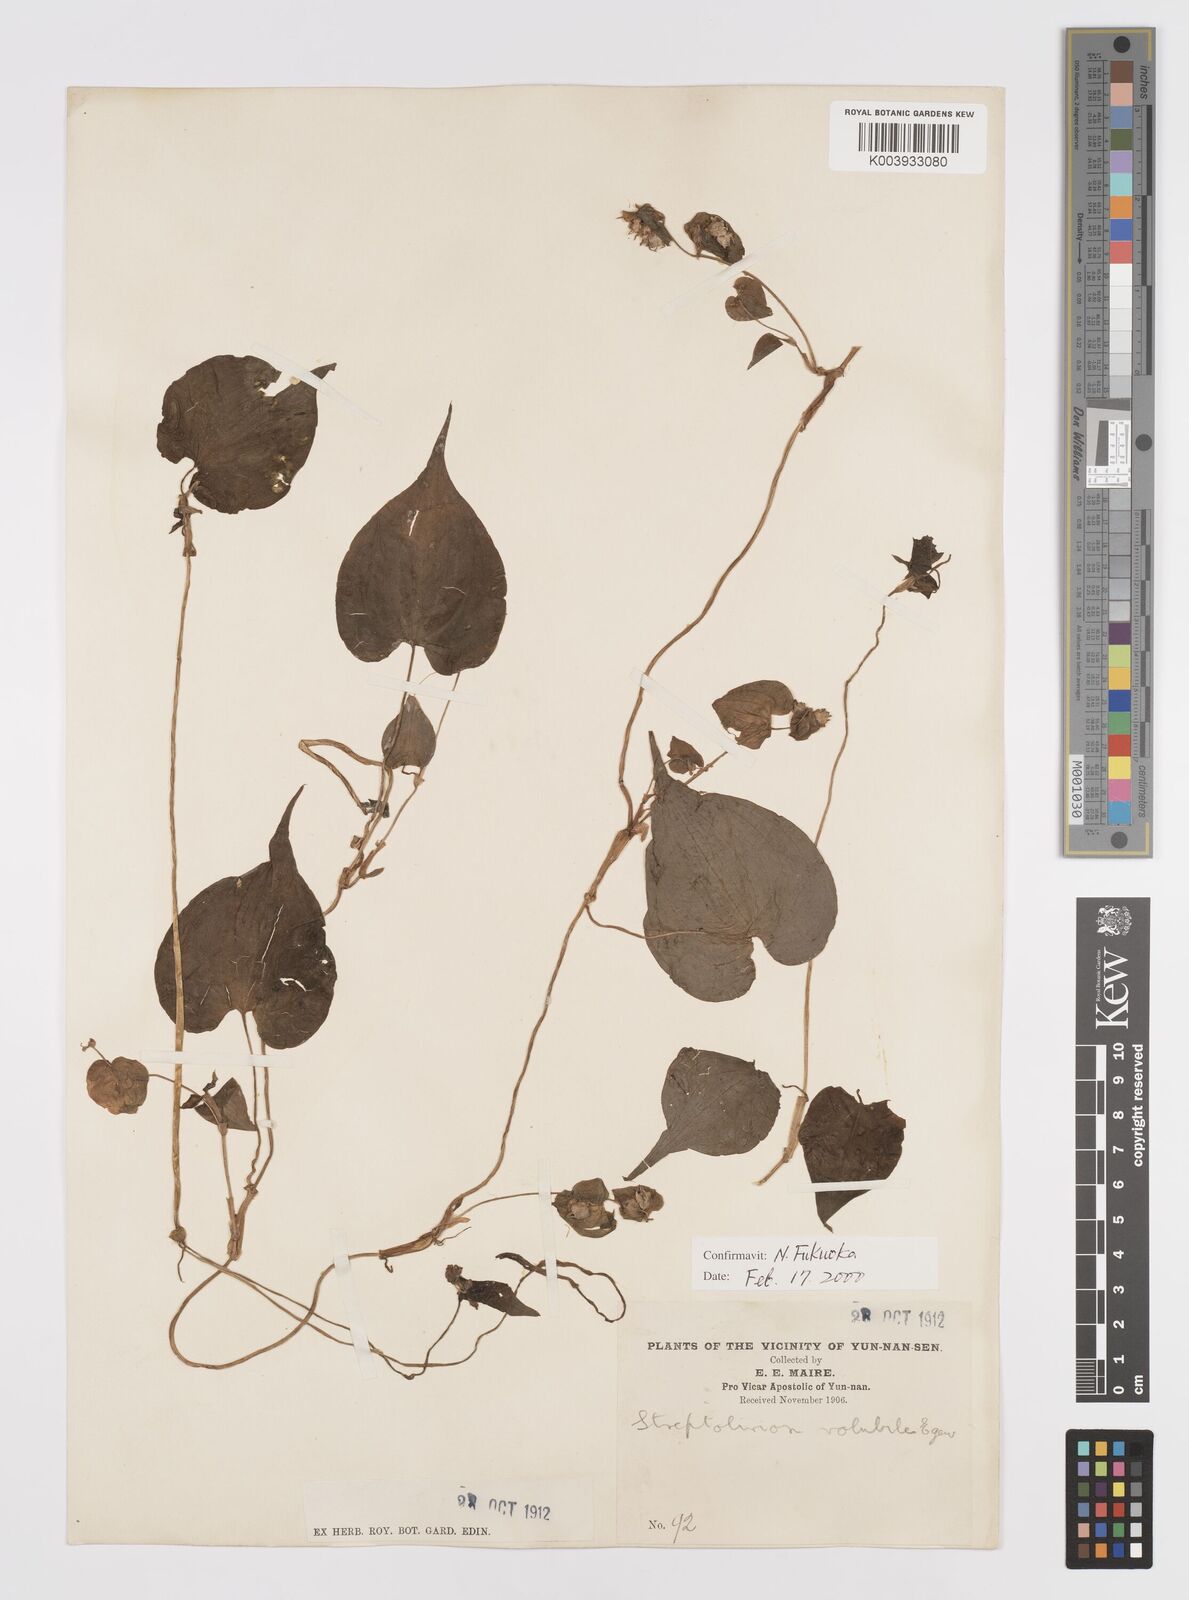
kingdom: Plantae
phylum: Tracheophyta
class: Liliopsida
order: Commelinales
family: Commelinaceae
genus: Streptolirion
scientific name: Streptolirion volubile
